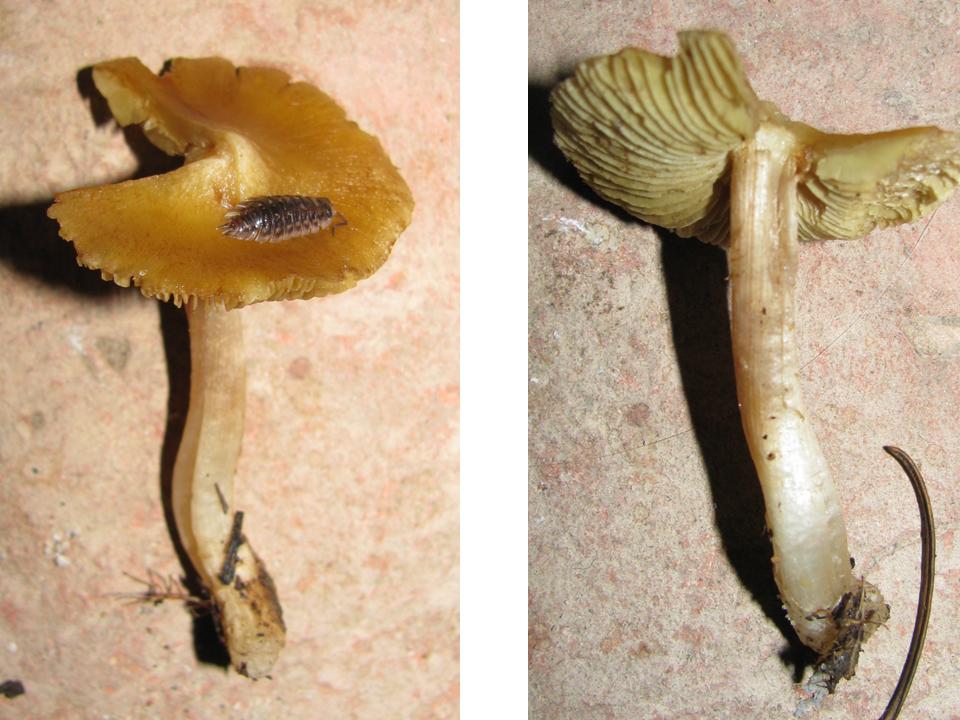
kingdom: Fungi
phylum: Basidiomycota
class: Agaricomycetes
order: Agaricales
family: Inocybaceae
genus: Pseudosperma
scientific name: Pseudosperma rimosum
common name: gulbladet trævlhat
